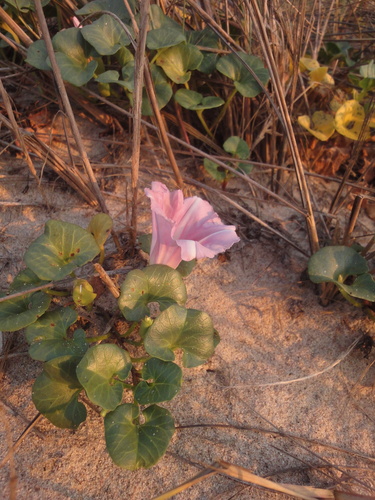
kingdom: Plantae
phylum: Tracheophyta
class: Magnoliopsida
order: Solanales
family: Convolvulaceae
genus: Calystegia
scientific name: Calystegia soldanella
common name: Sea bindweed
